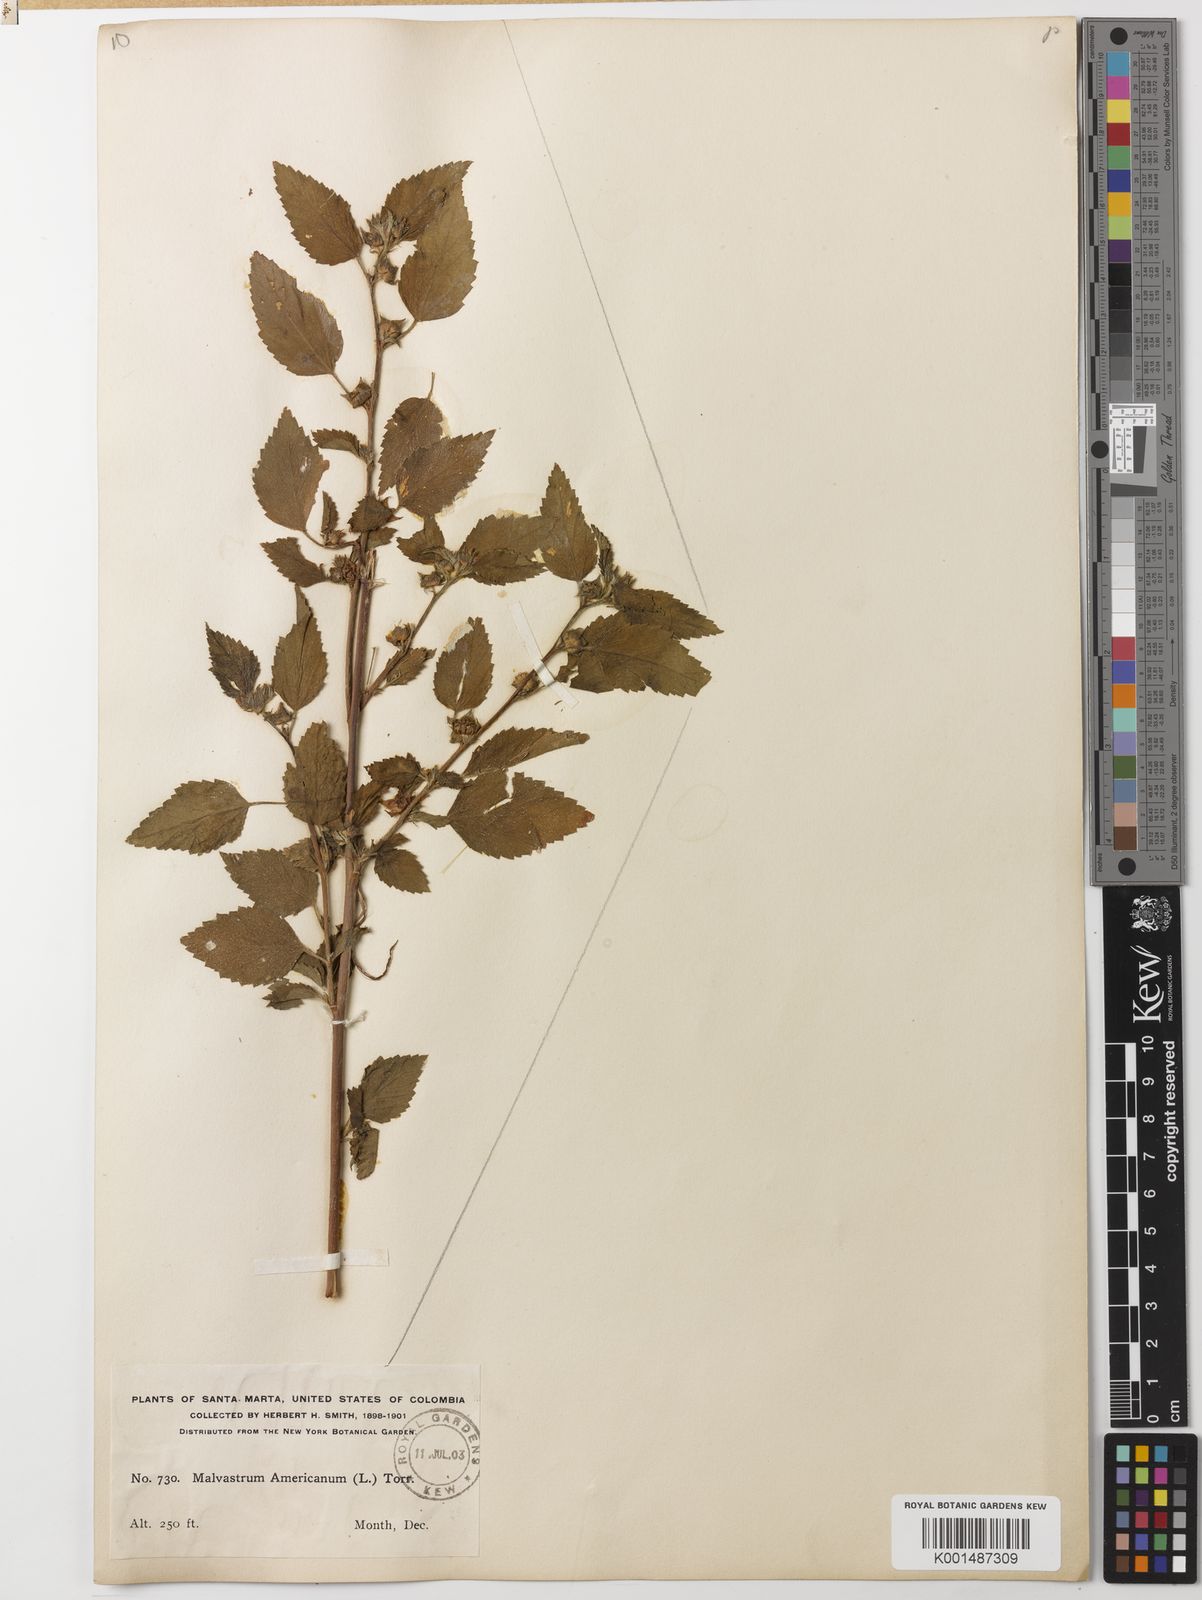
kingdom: Plantae
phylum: Tracheophyta
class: Magnoliopsida
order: Malvales
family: Malvaceae
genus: Malvastrum
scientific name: Malvastrum coromandelianum
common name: Threelobe false mallow
